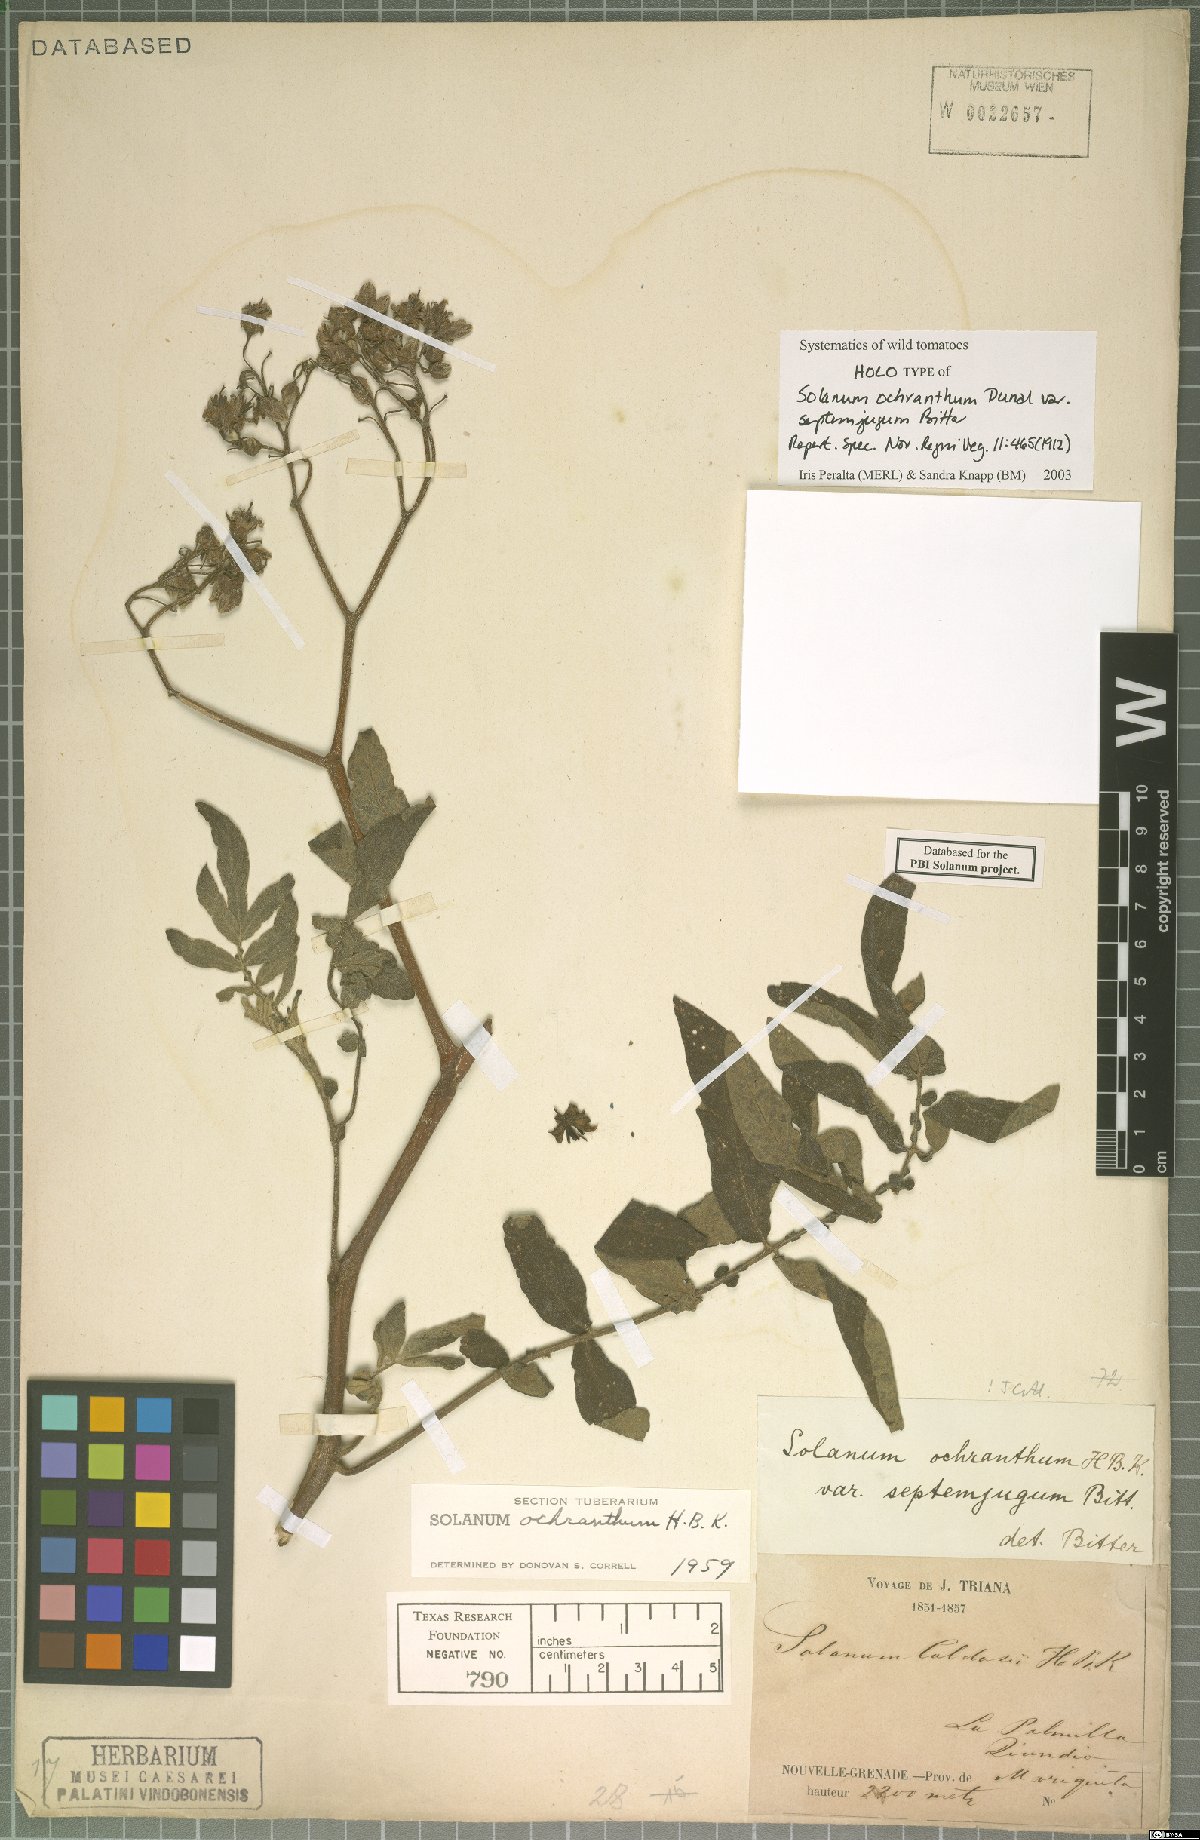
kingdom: Plantae
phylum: Tracheophyta
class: Magnoliopsida
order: Solanales
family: Solanaceae
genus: Solanum
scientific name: Solanum ochranthum
